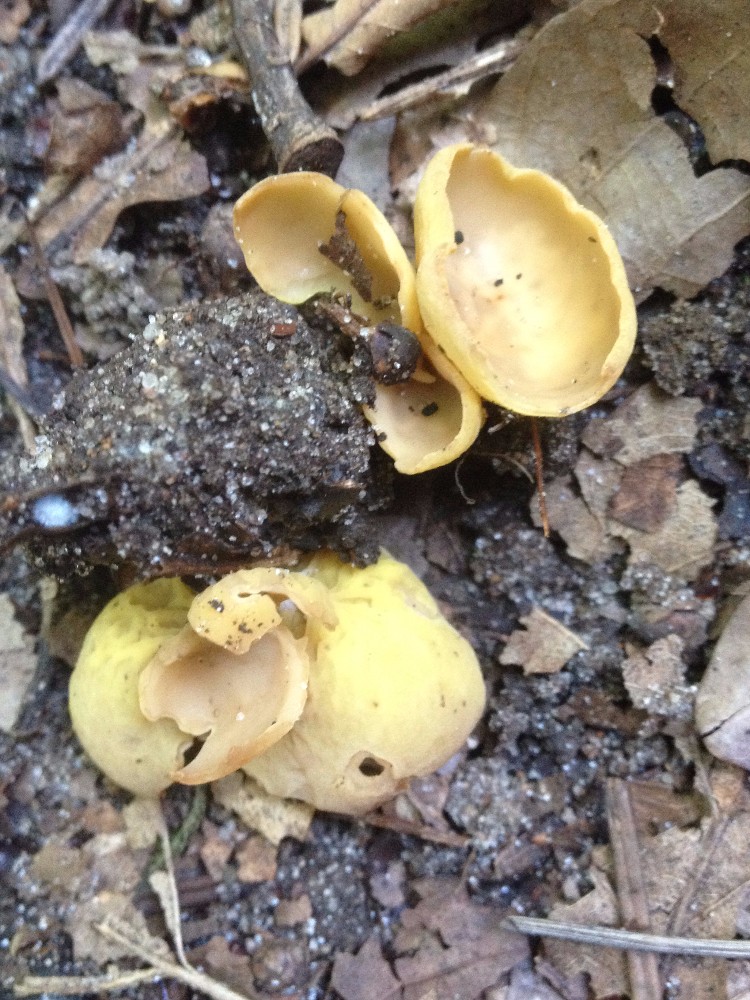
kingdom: Fungi
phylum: Ascomycota
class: Pezizomycetes
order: Pezizales
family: Otideaceae
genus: Otidea
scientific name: Otidea phlebophora
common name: året ørebæger
